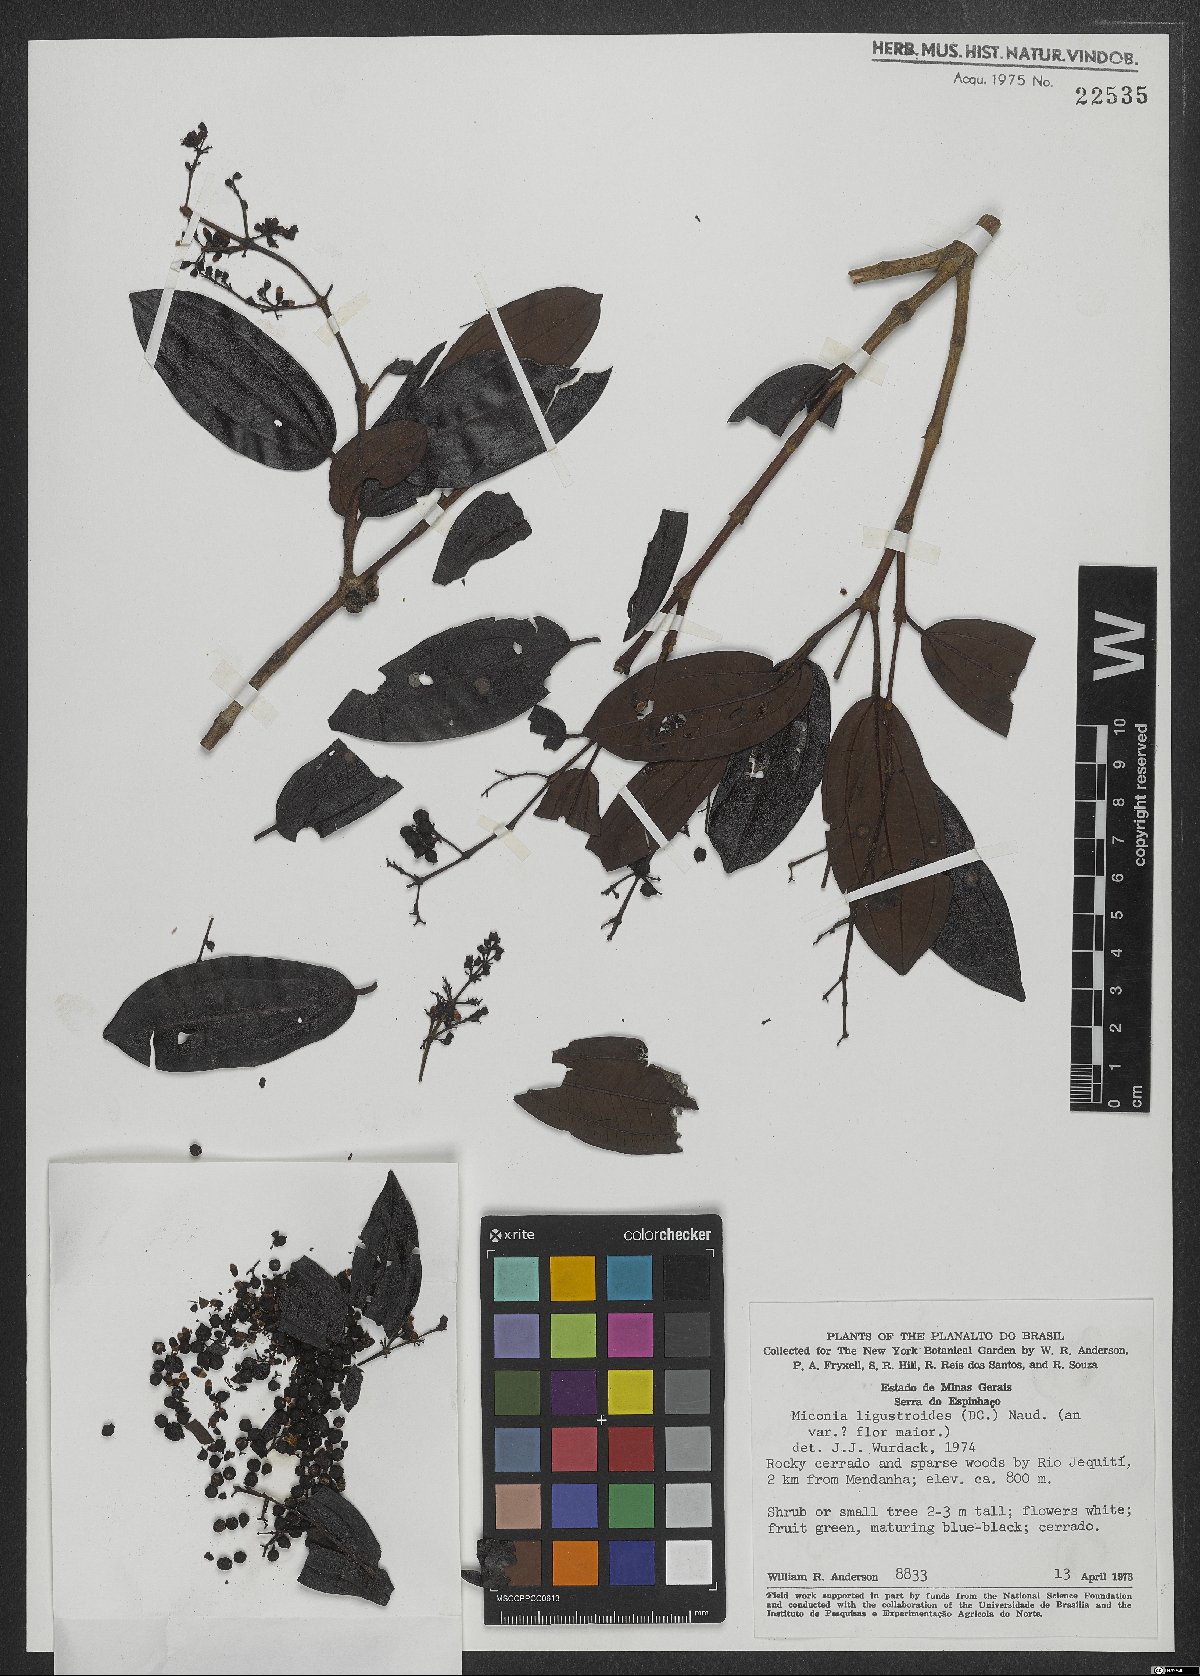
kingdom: Plantae
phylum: Tracheophyta
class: Magnoliopsida
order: Myrtales
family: Melastomataceae
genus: Miconia
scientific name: Miconia ligustroides
